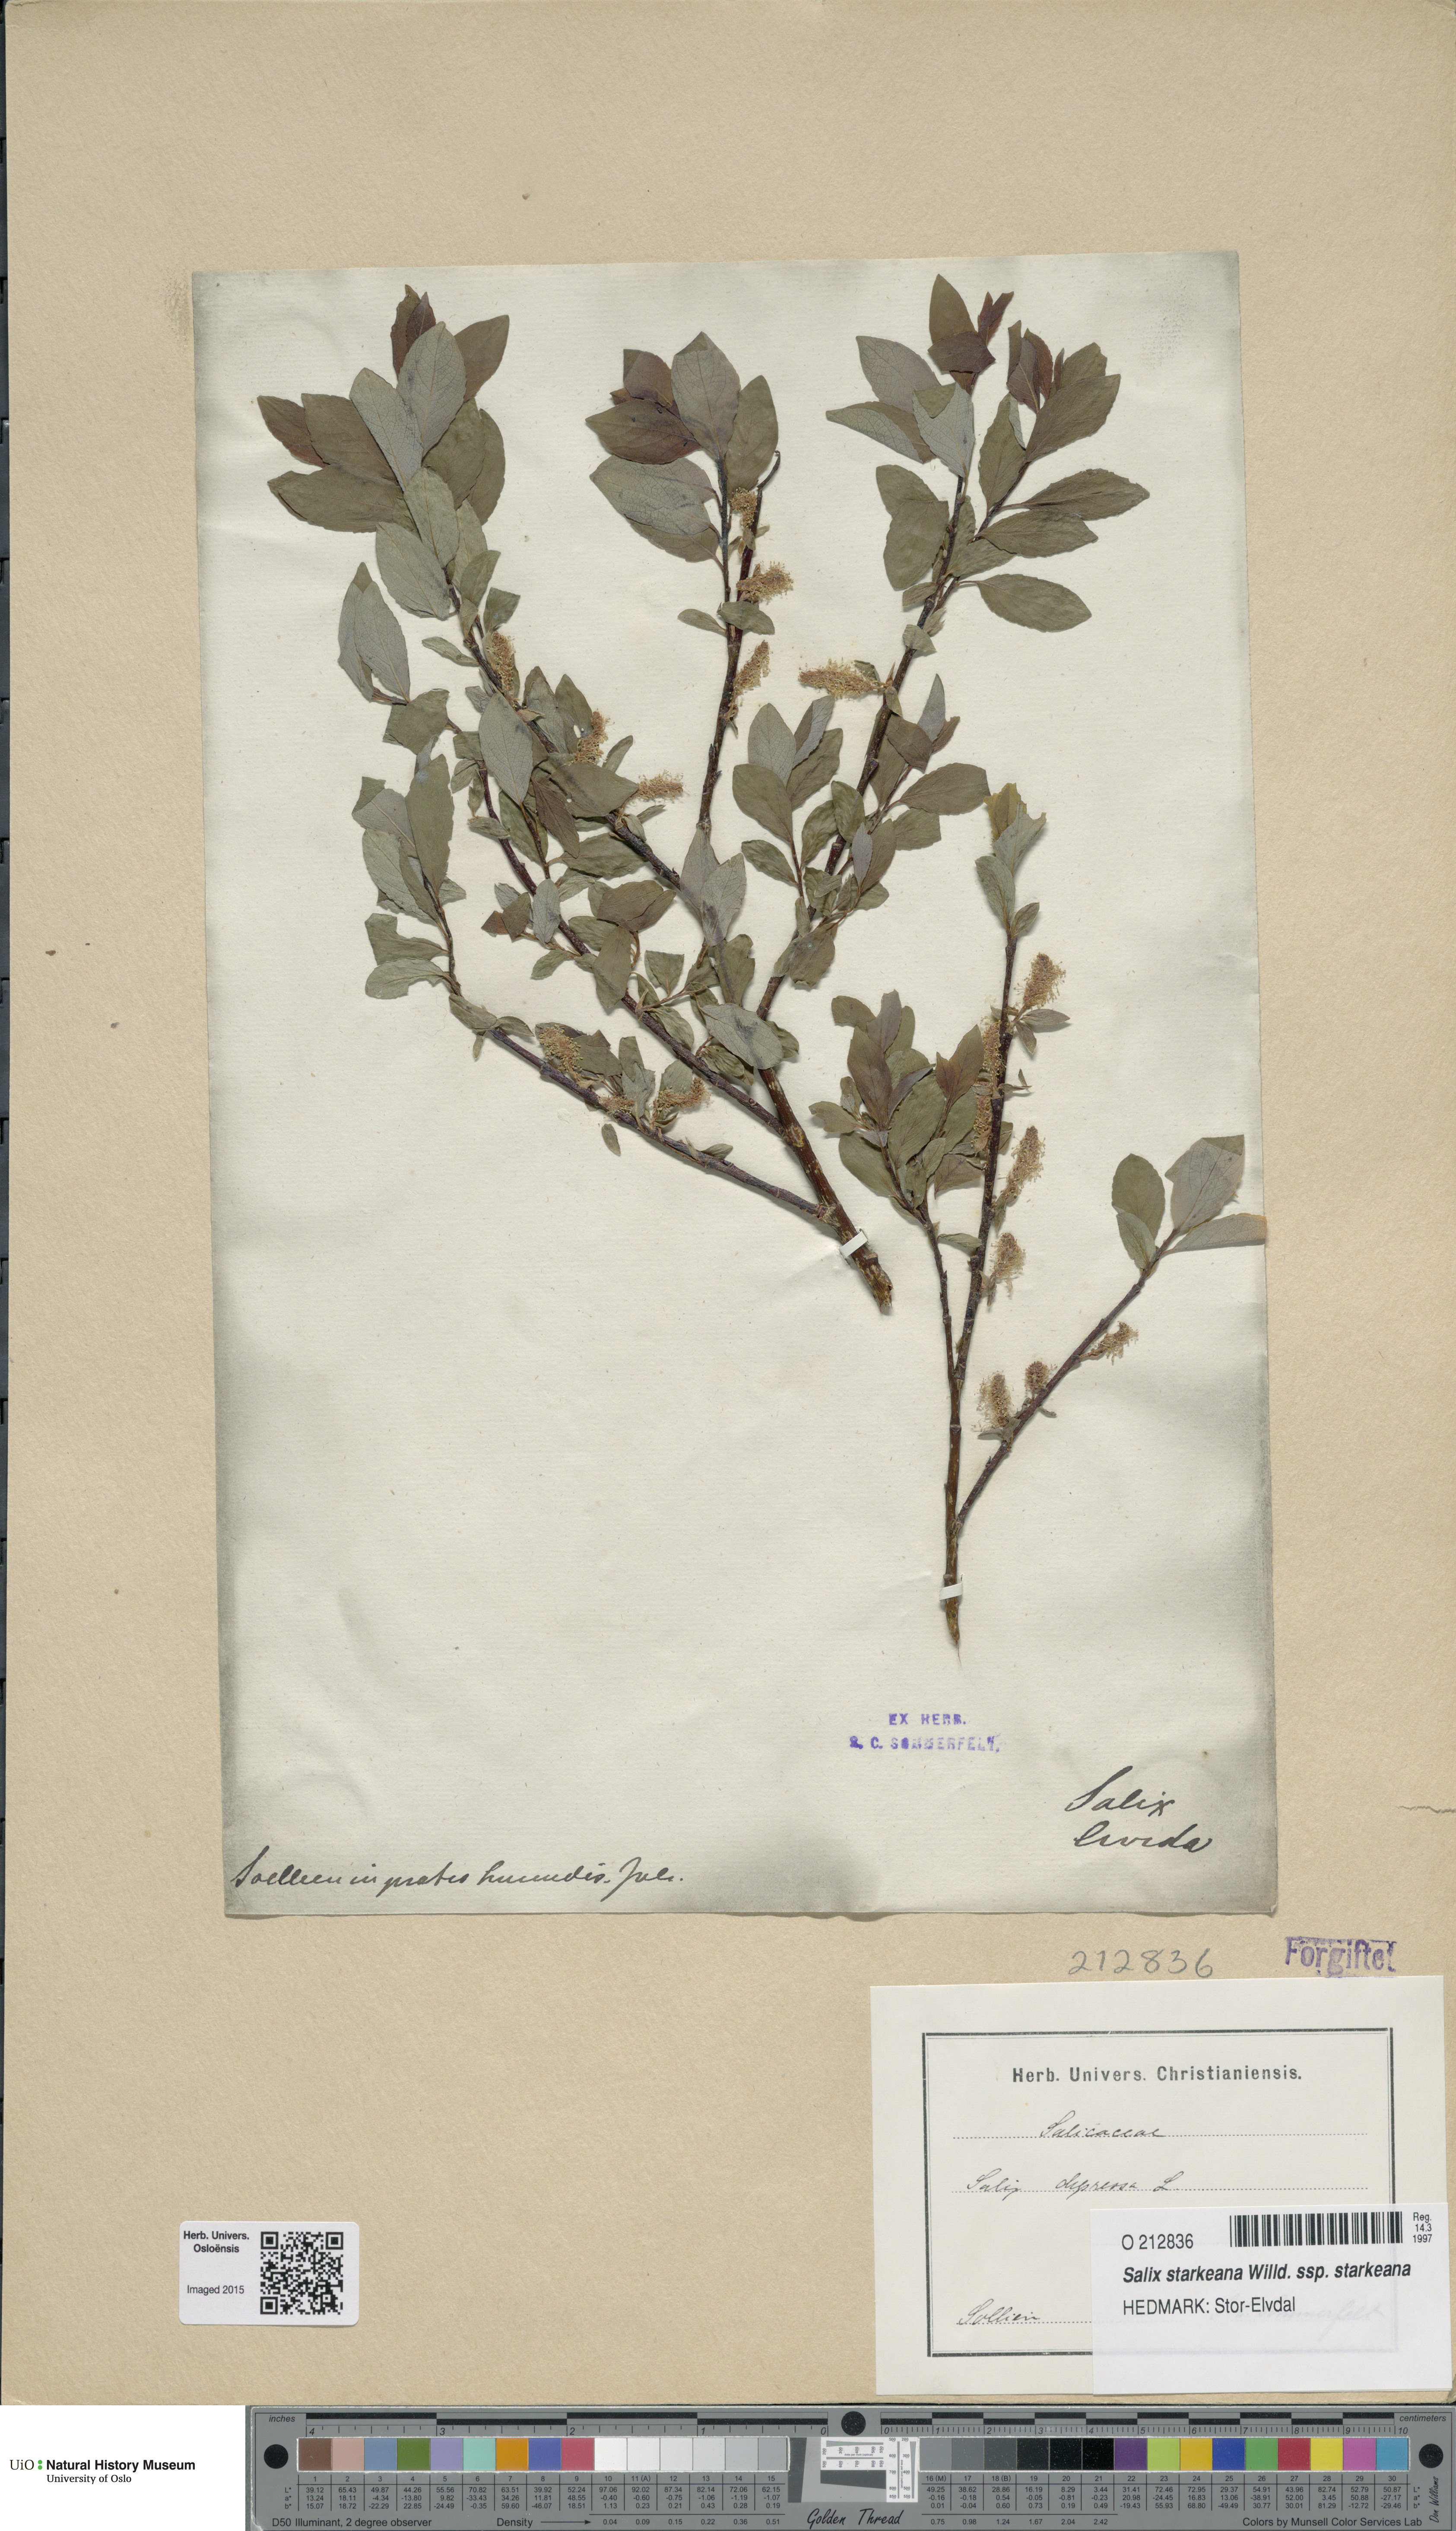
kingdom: Plantae
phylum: Tracheophyta
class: Magnoliopsida
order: Malpighiales
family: Salicaceae
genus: Salix
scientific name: Salix starkeana
